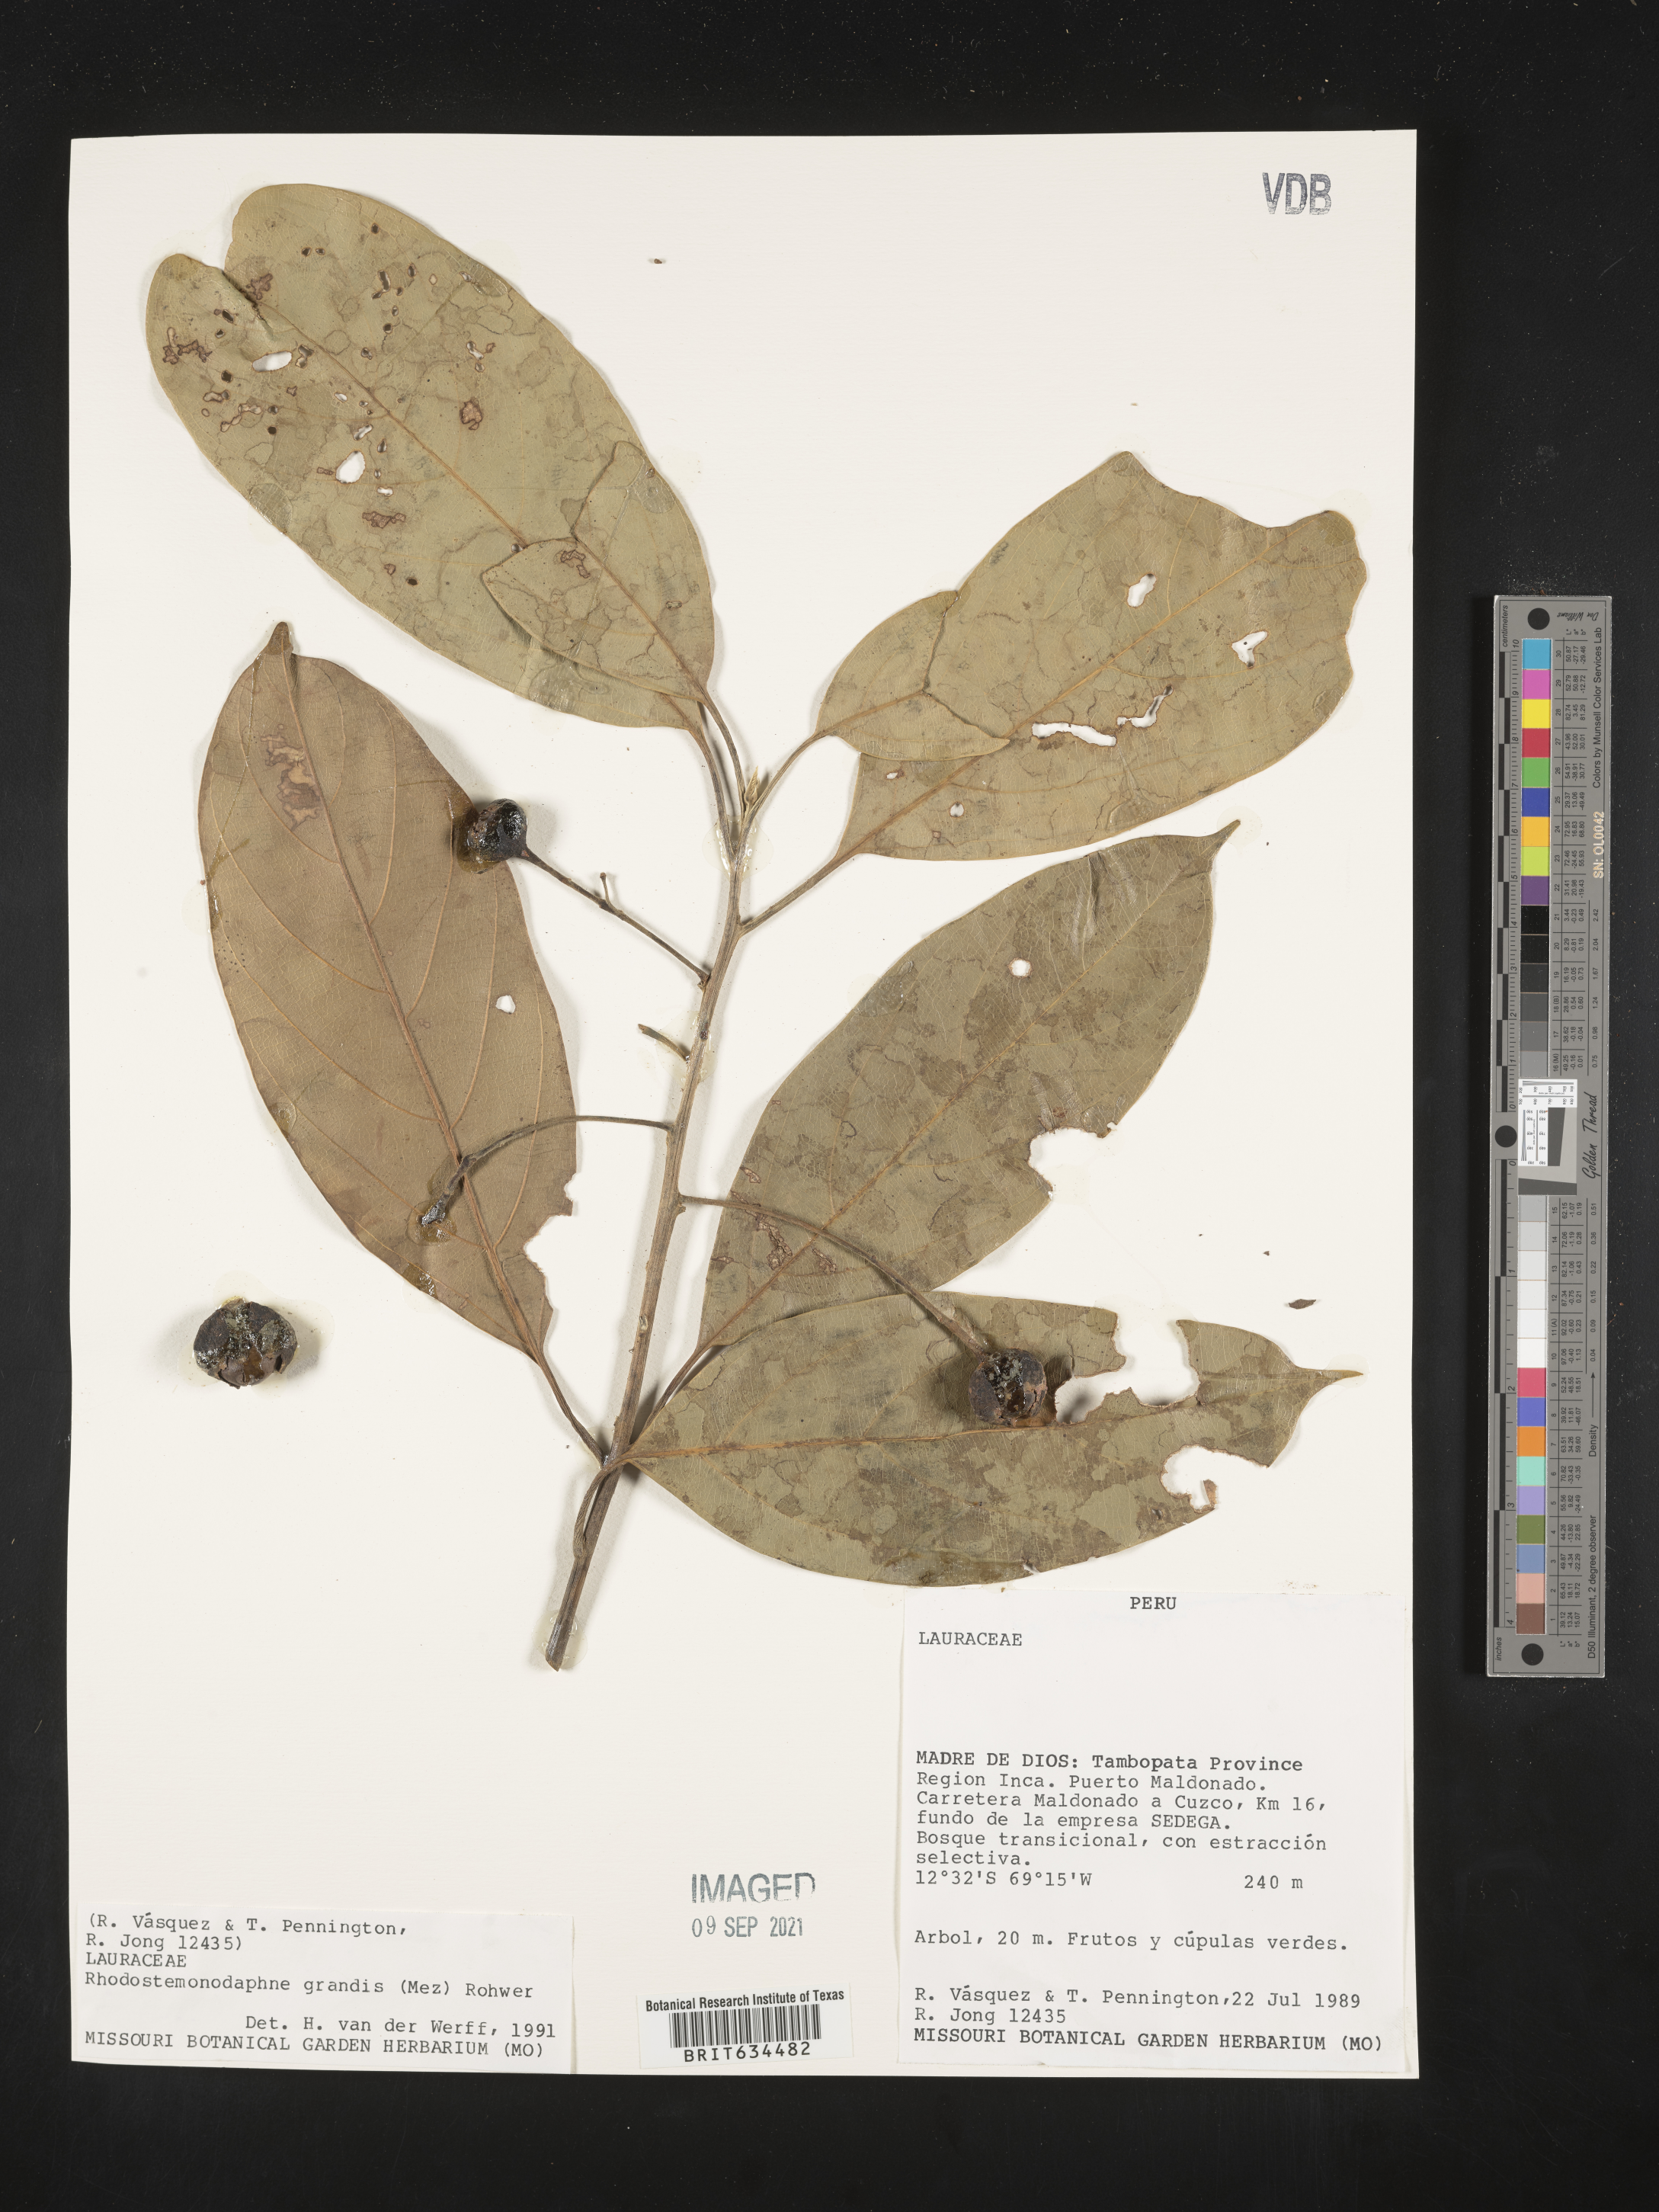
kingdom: Plantae
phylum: Tracheophyta
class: Magnoliopsida
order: Laurales
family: Lauraceae
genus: Rhodostemonodaphne
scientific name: Rhodostemonodaphne
